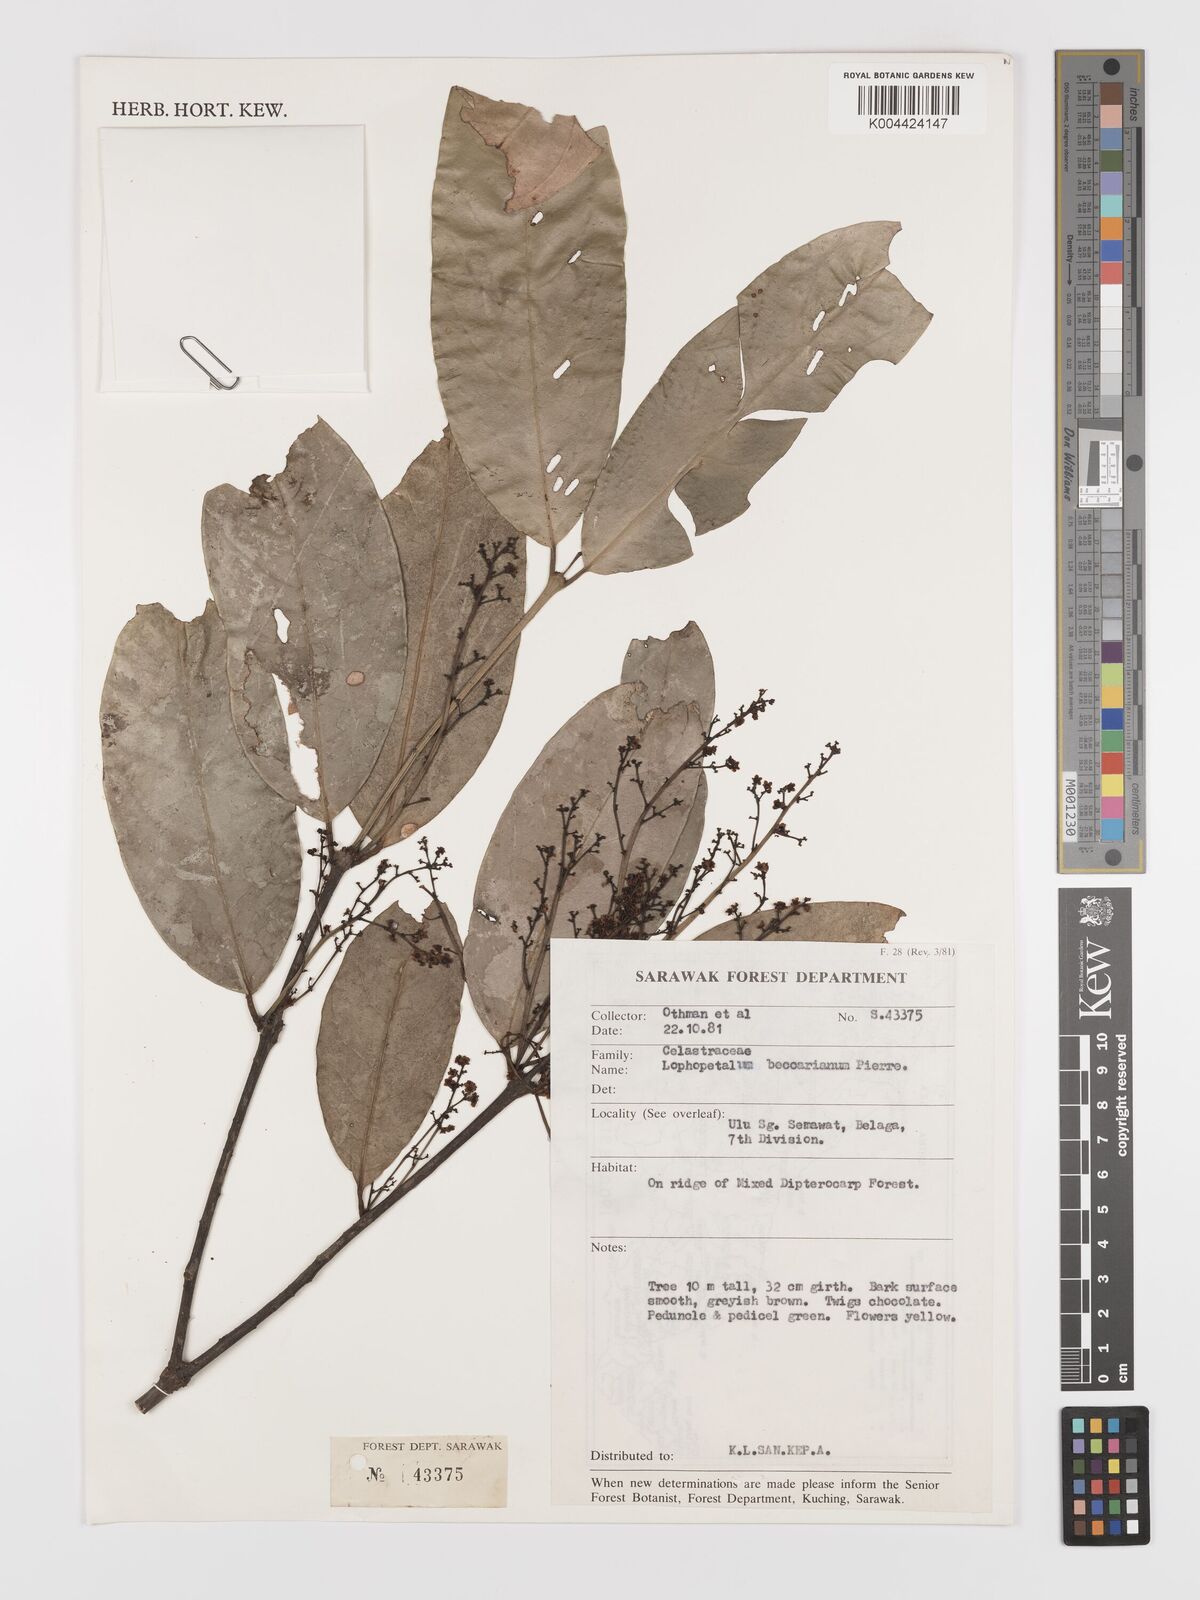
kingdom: Plantae
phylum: Tracheophyta
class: Magnoliopsida
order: Celastrales
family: Celastraceae
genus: Lophopetalum
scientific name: Lophopetalum beccarianum
